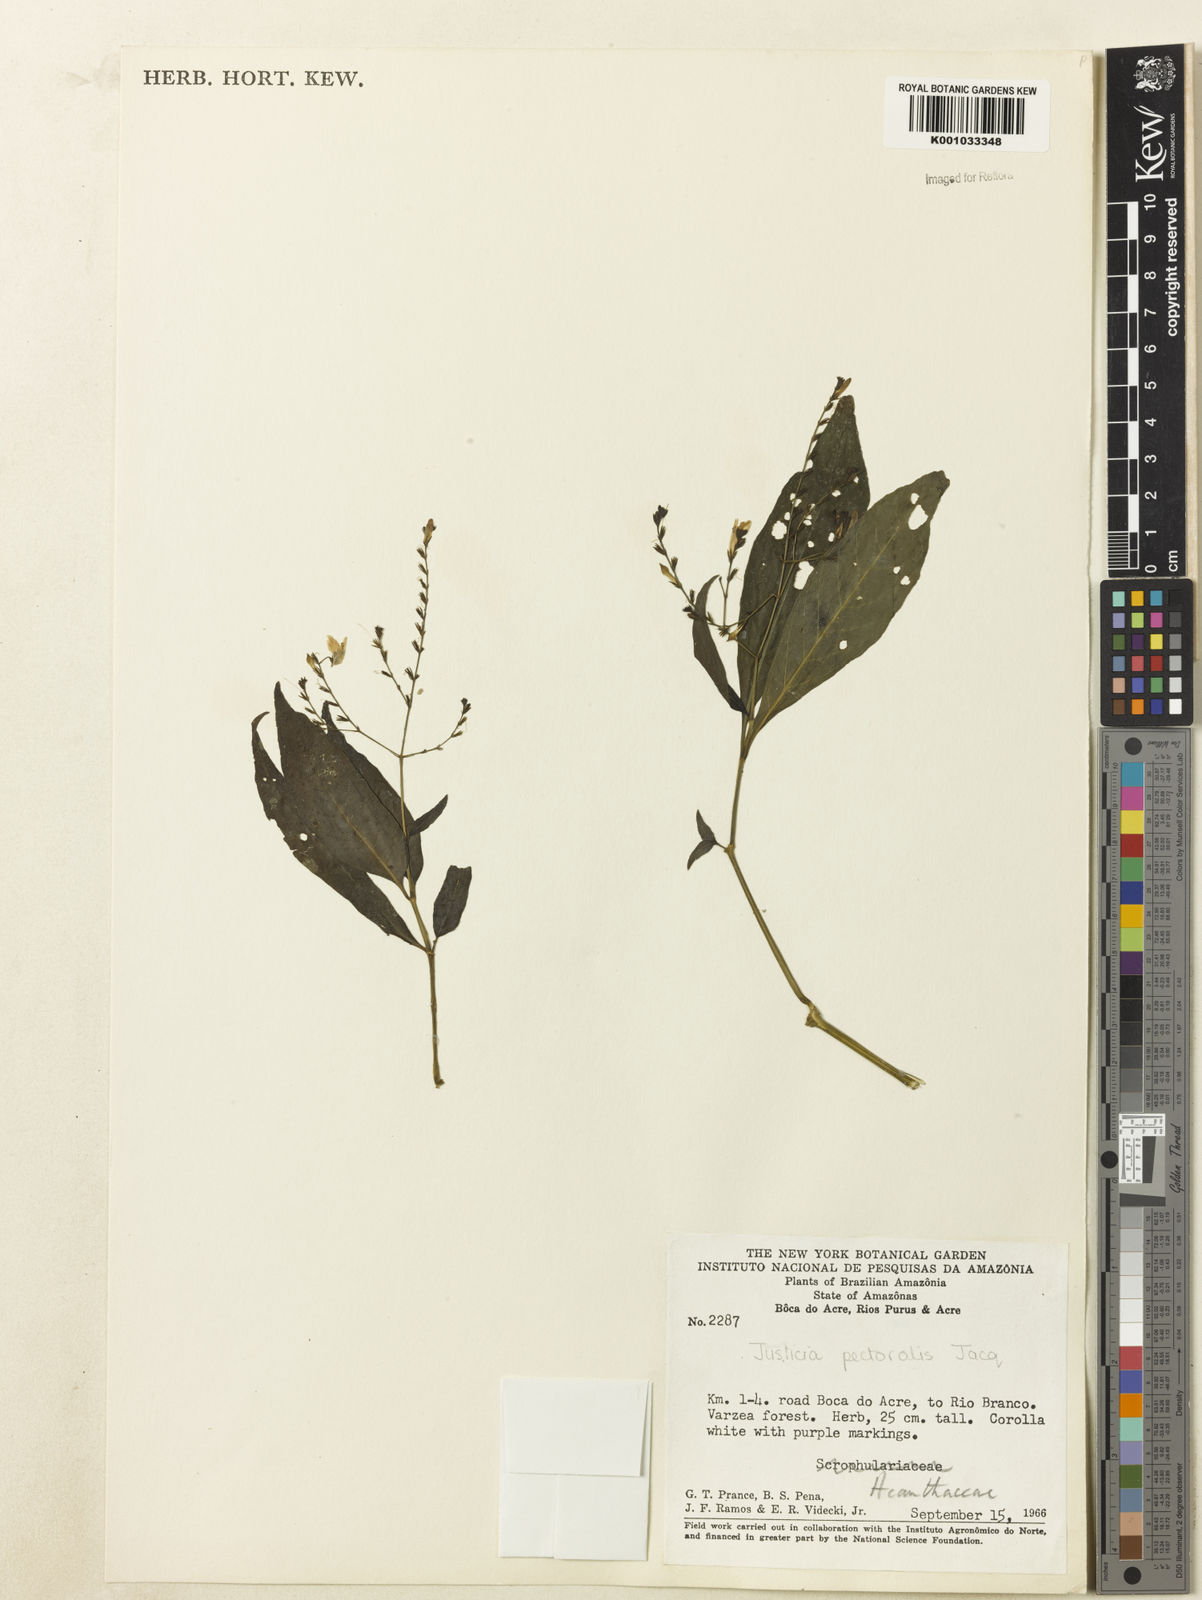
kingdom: Plantae
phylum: Tracheophyta
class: Magnoliopsida
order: Lamiales
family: Acanthaceae
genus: Dianthera
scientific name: Dianthera pectoralis
